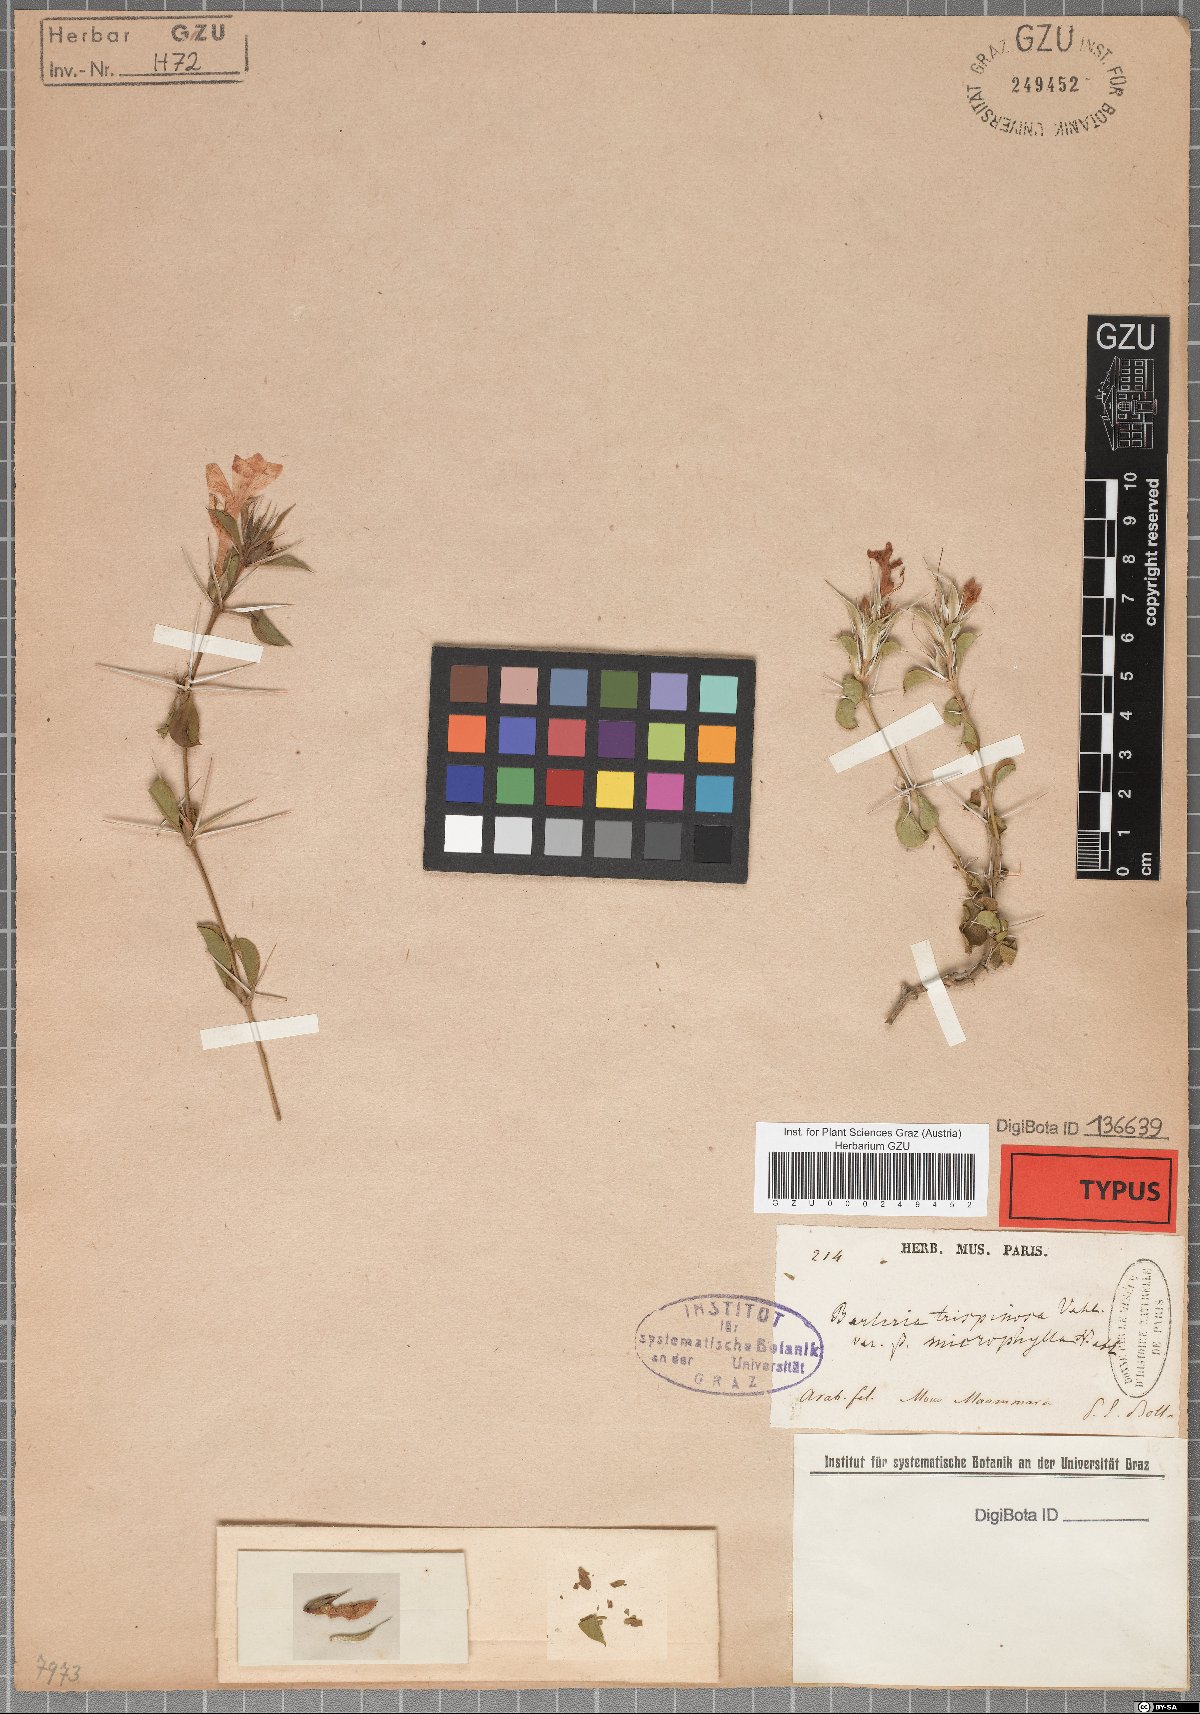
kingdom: Plantae
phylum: Tracheophyta
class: Magnoliopsida
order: Lamiales
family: Acanthaceae
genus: Barleria
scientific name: Barleria trispinosa
